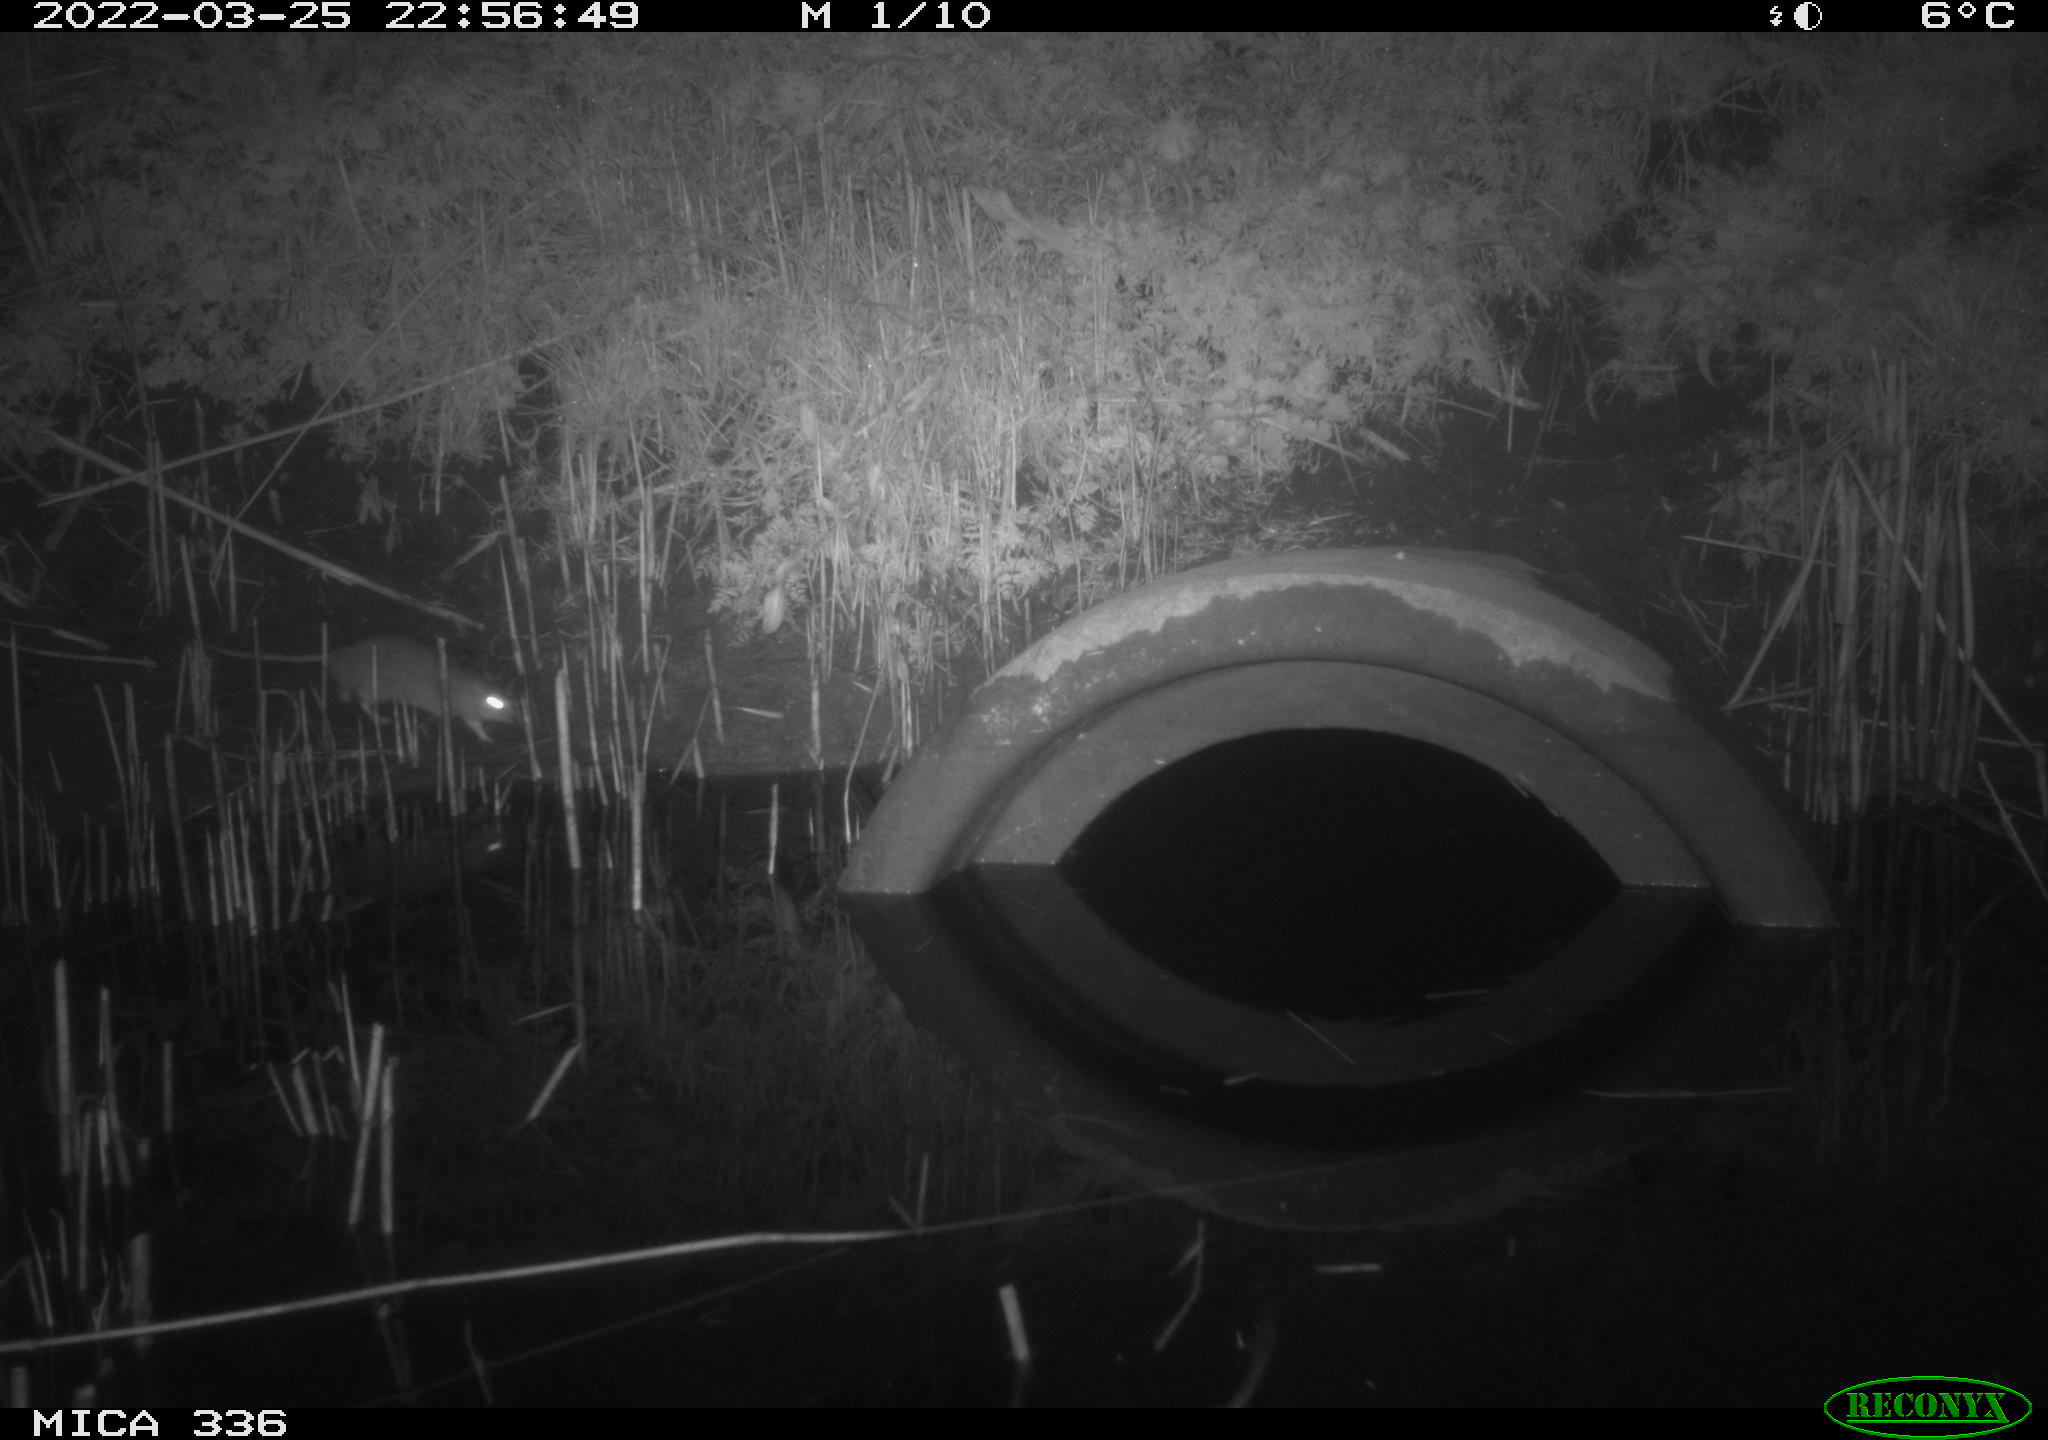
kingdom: Animalia
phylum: Chordata
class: Mammalia
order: Rodentia
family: Muridae
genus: Rattus
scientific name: Rattus norvegicus
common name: Brown rat
